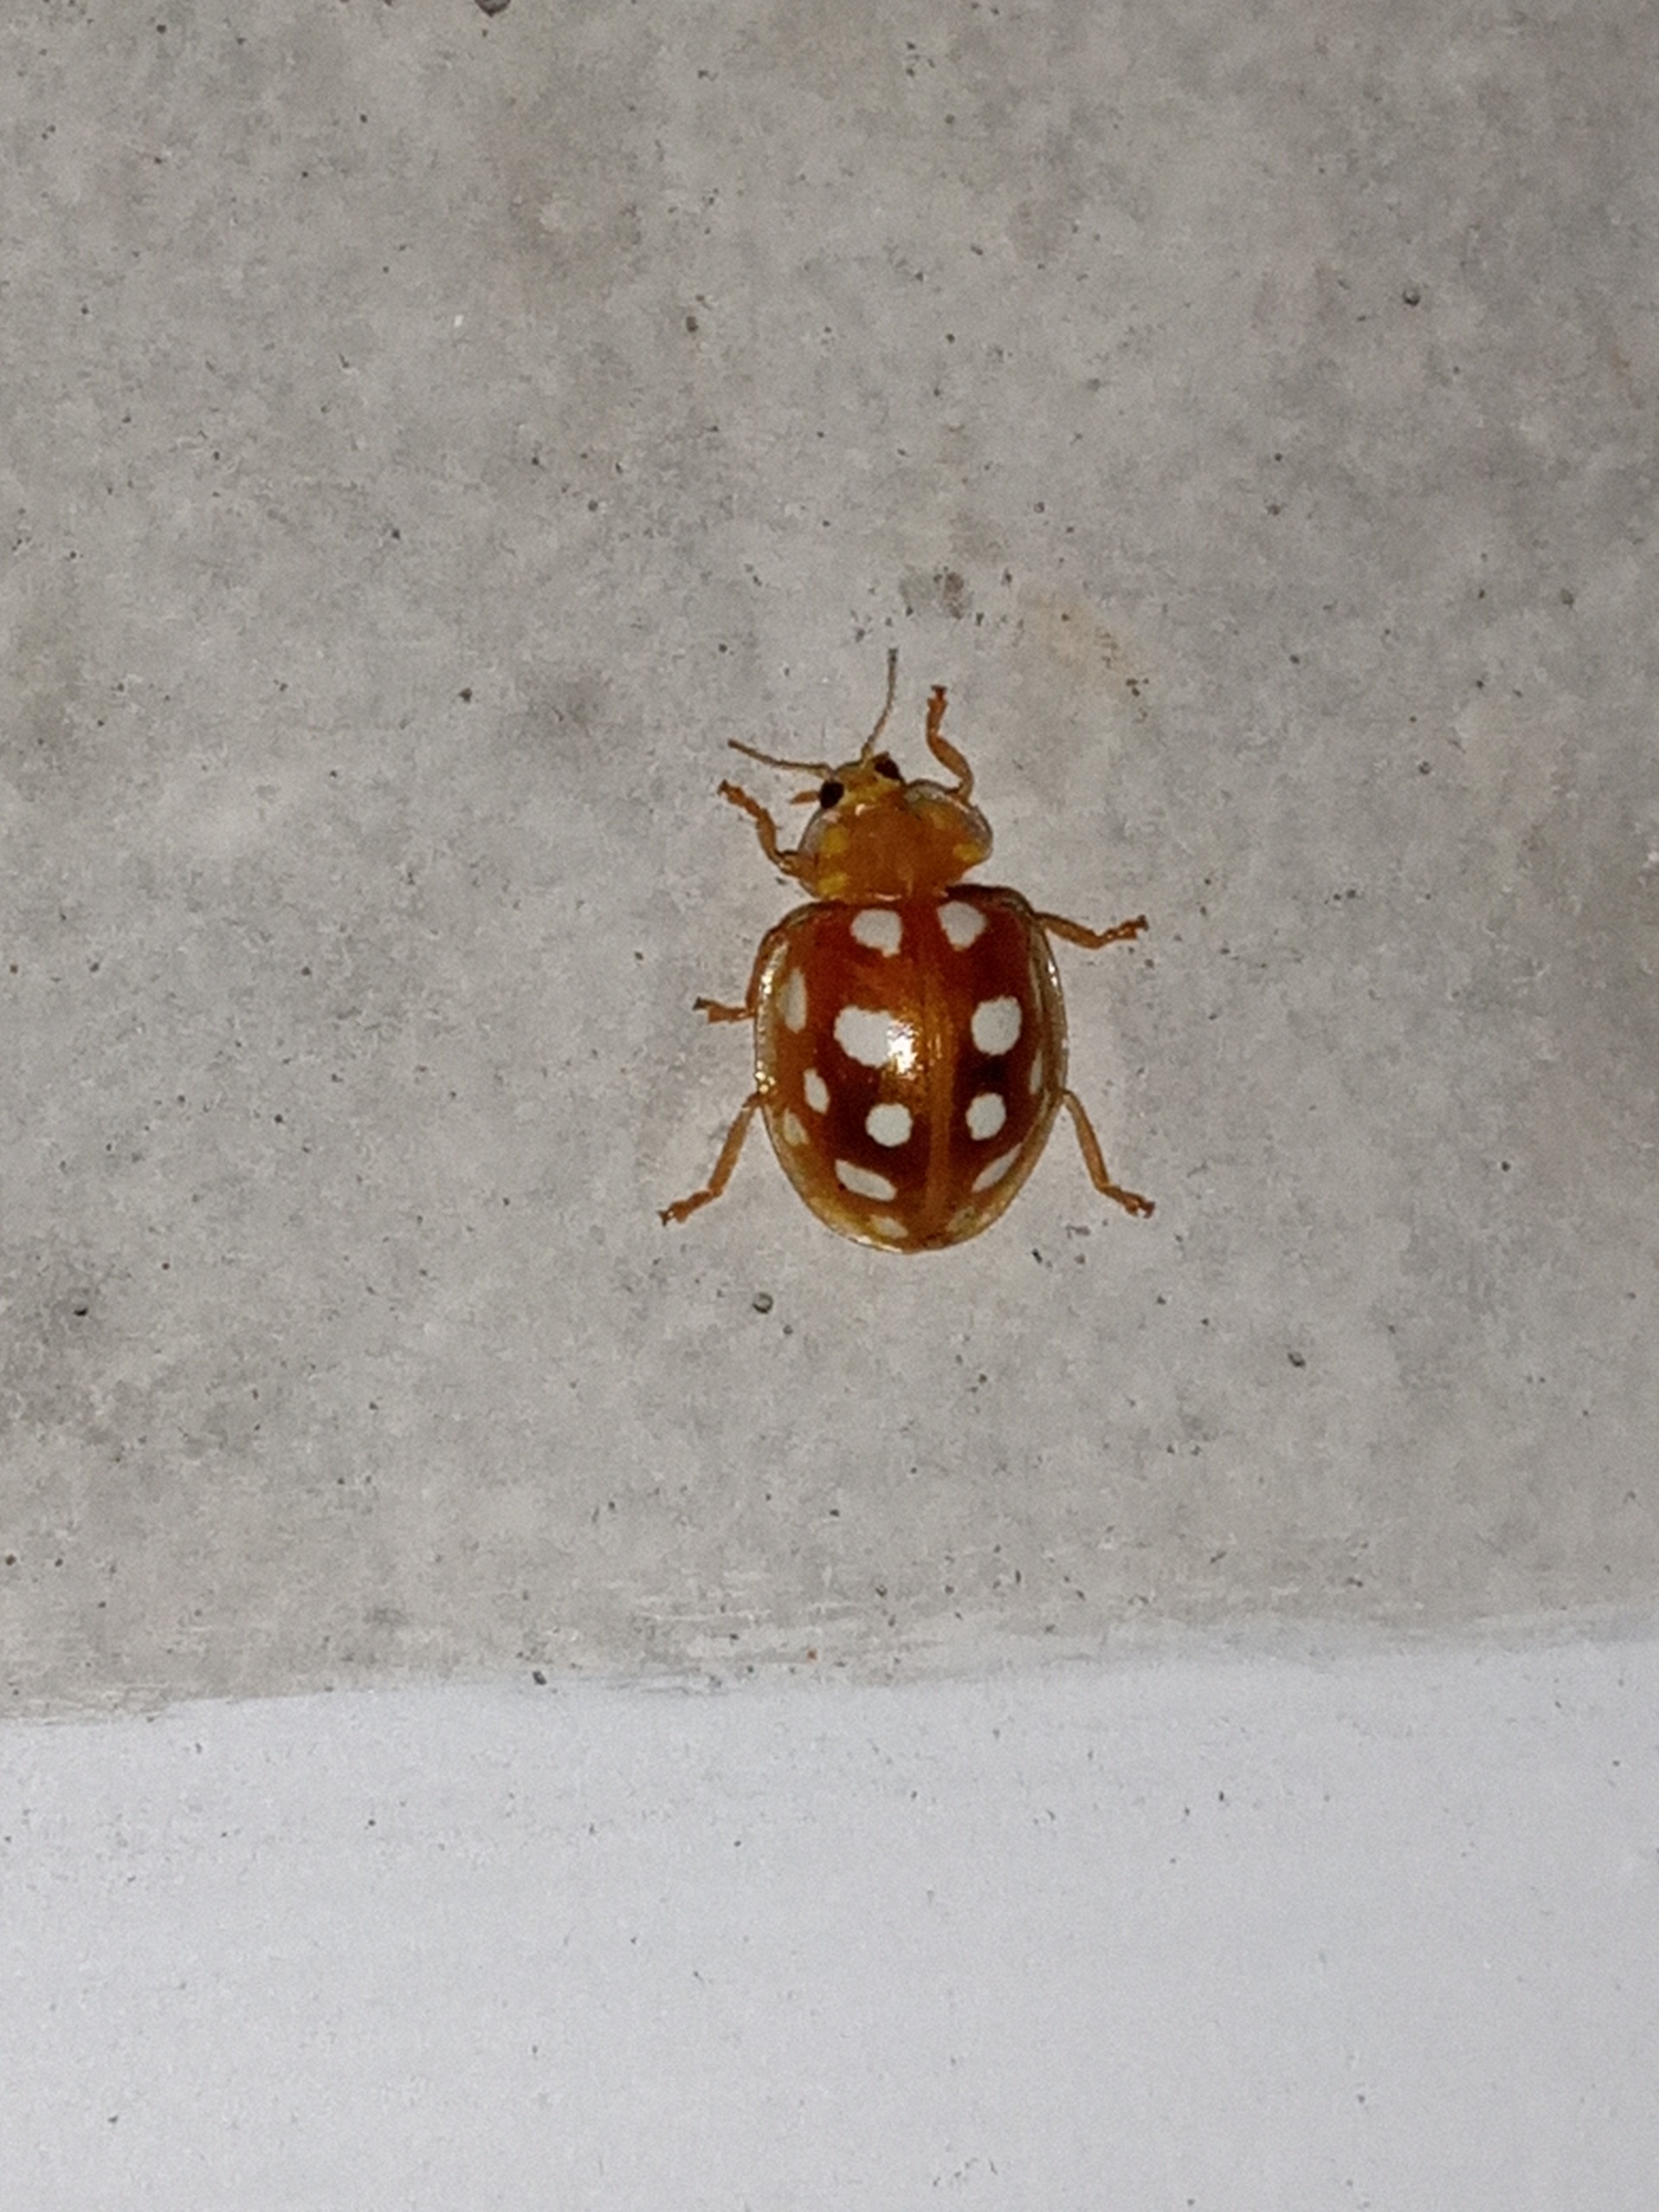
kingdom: Animalia
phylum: Arthropoda
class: Insecta
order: Coleoptera
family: Coccinellidae
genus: Halyzia
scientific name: Halyzia sedecimguttata
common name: Sekstenplettet mariehøne
